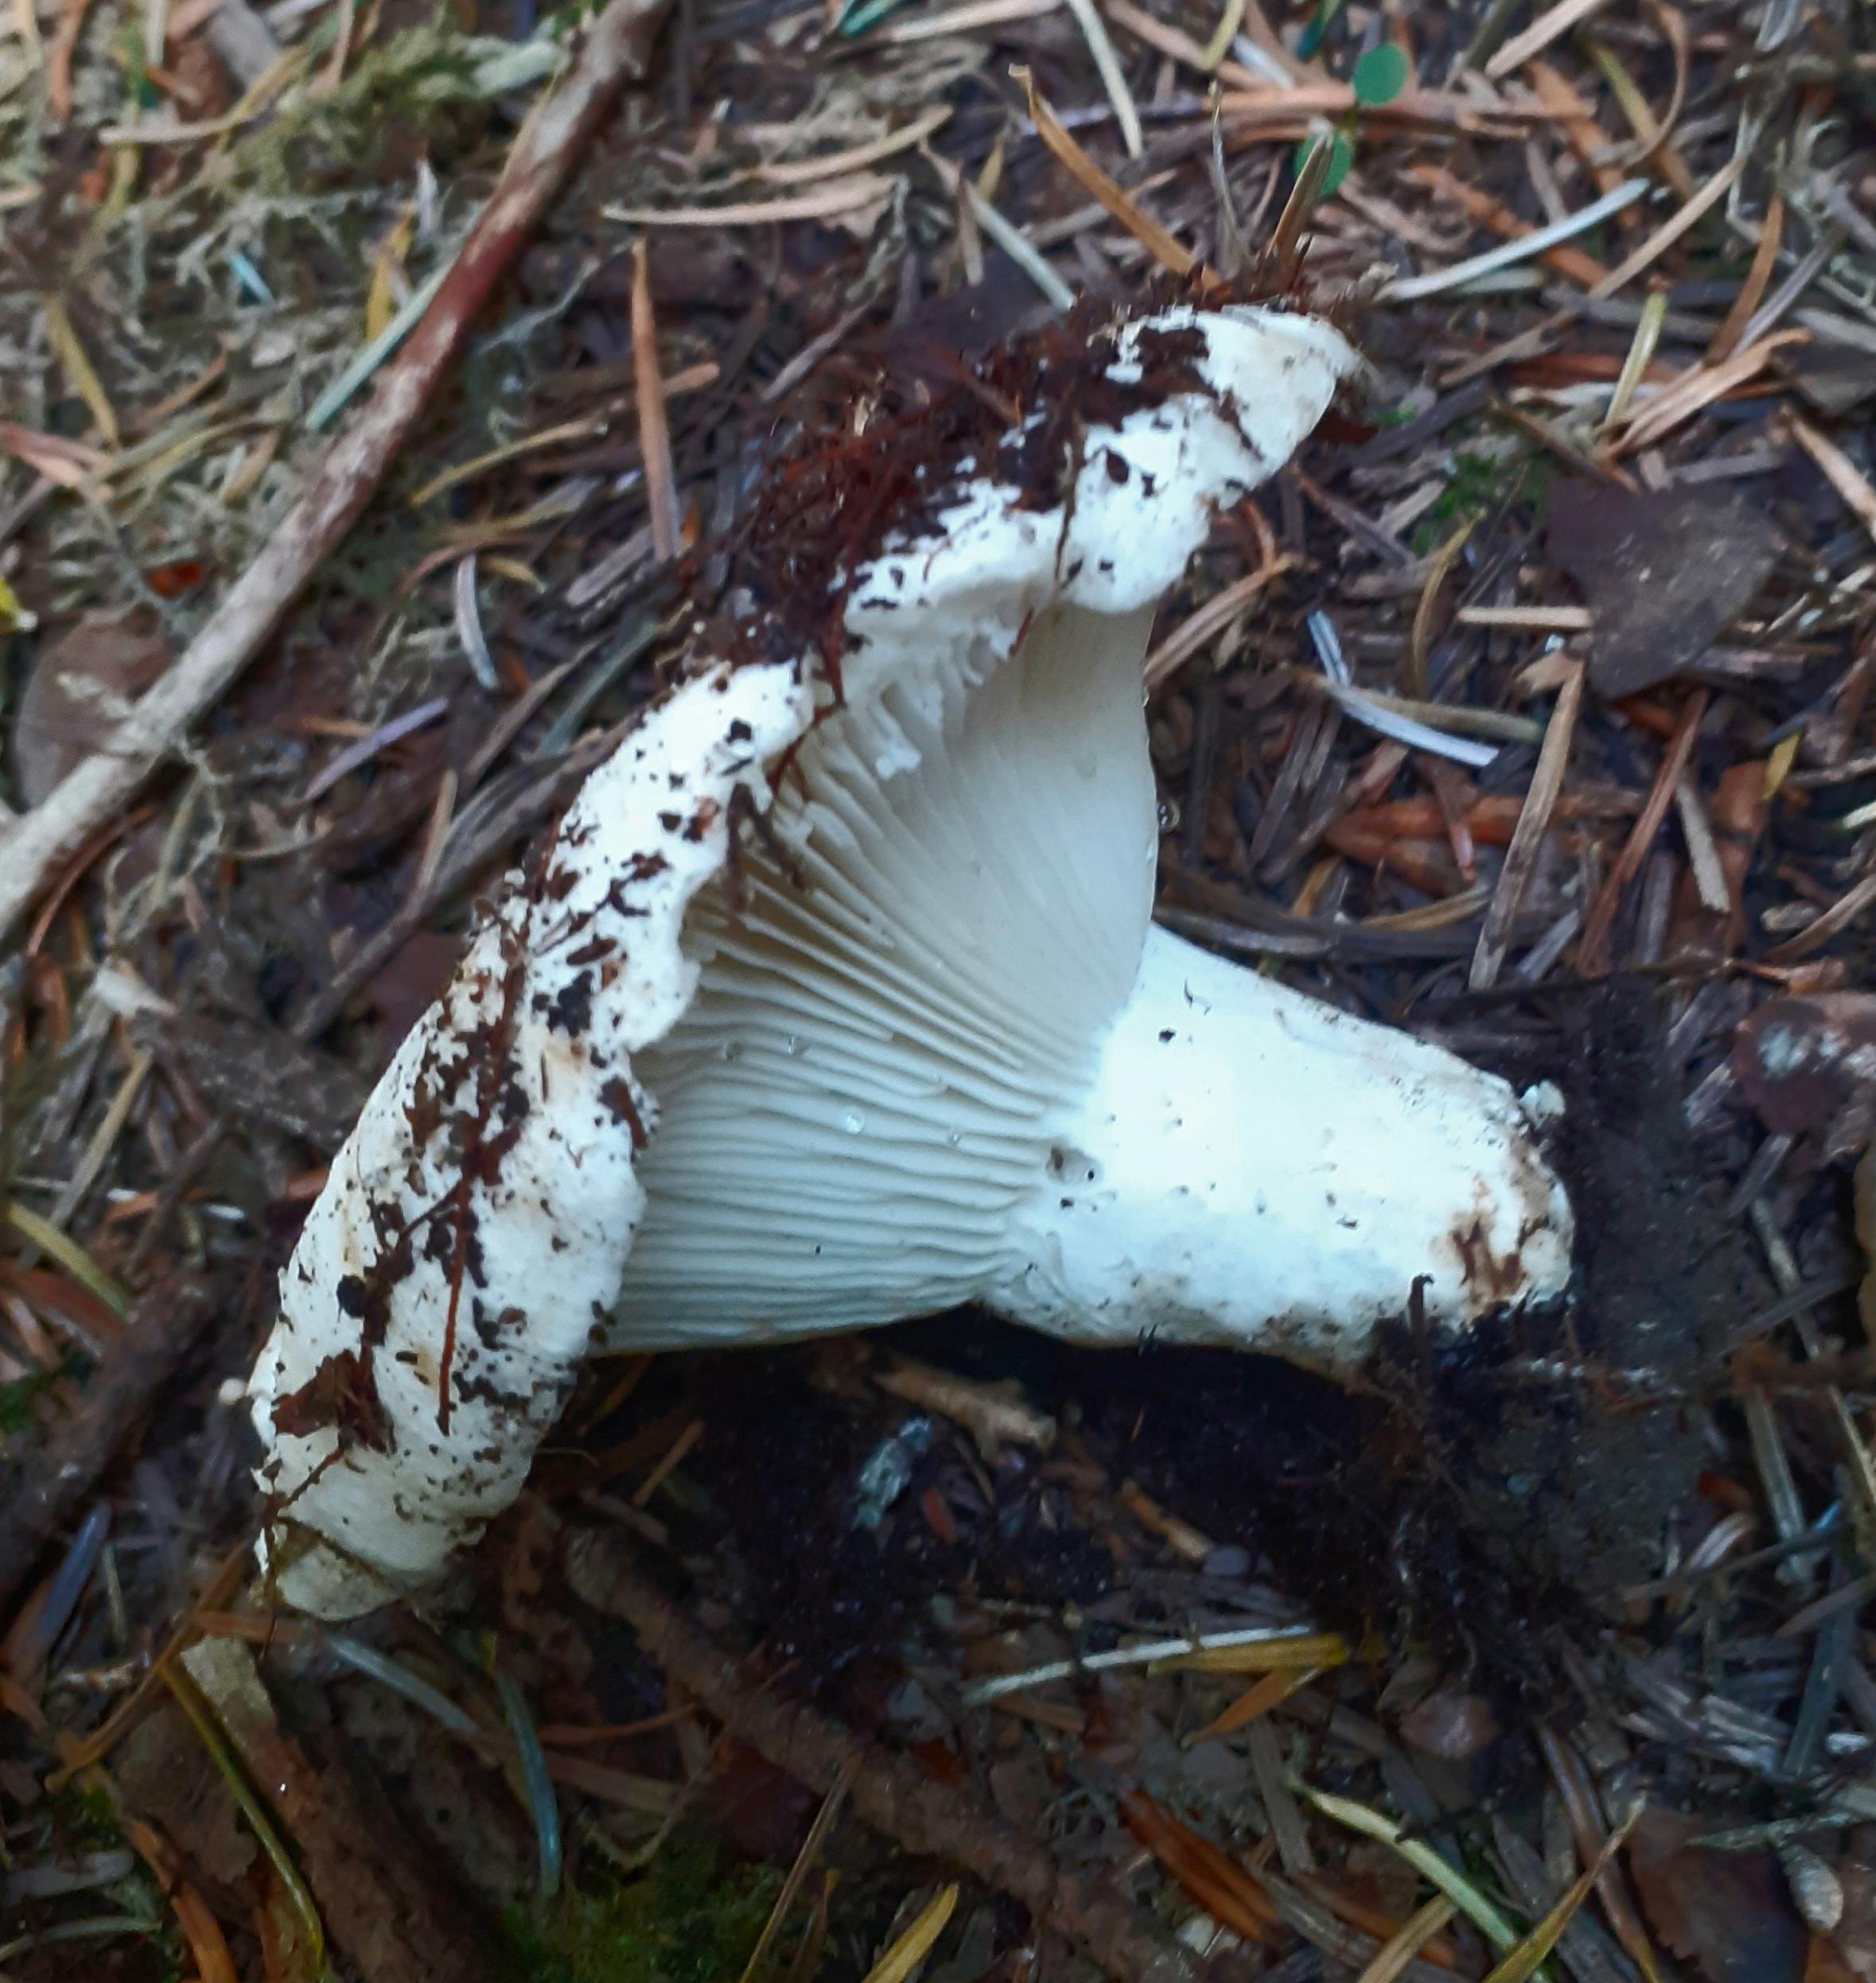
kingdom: Fungi
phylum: Basidiomycota
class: Agaricomycetes
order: Russulales
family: Russulaceae
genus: Russula
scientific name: Russula chloroides
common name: grønhalset tragt-skørhat
